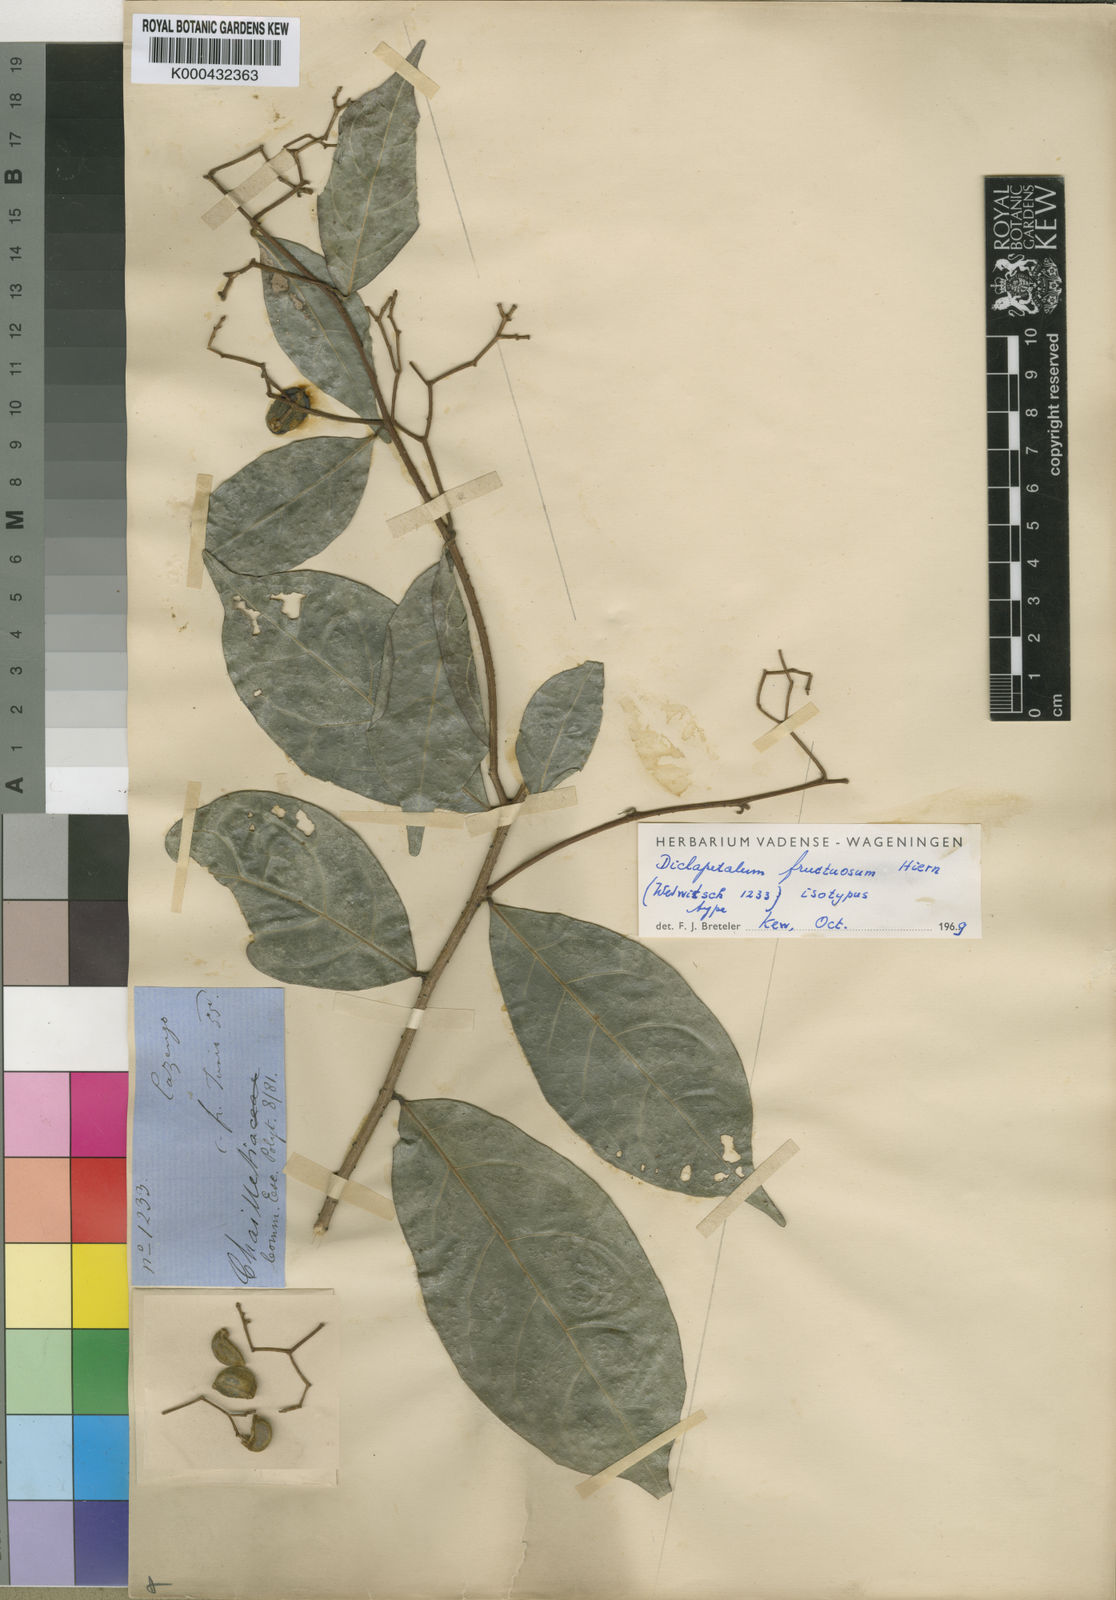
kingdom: Plantae
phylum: Tracheophyta
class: Magnoliopsida
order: Malpighiales
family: Dichapetalaceae
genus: Dichapetalum
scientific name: Dichapetalum fructuosum
